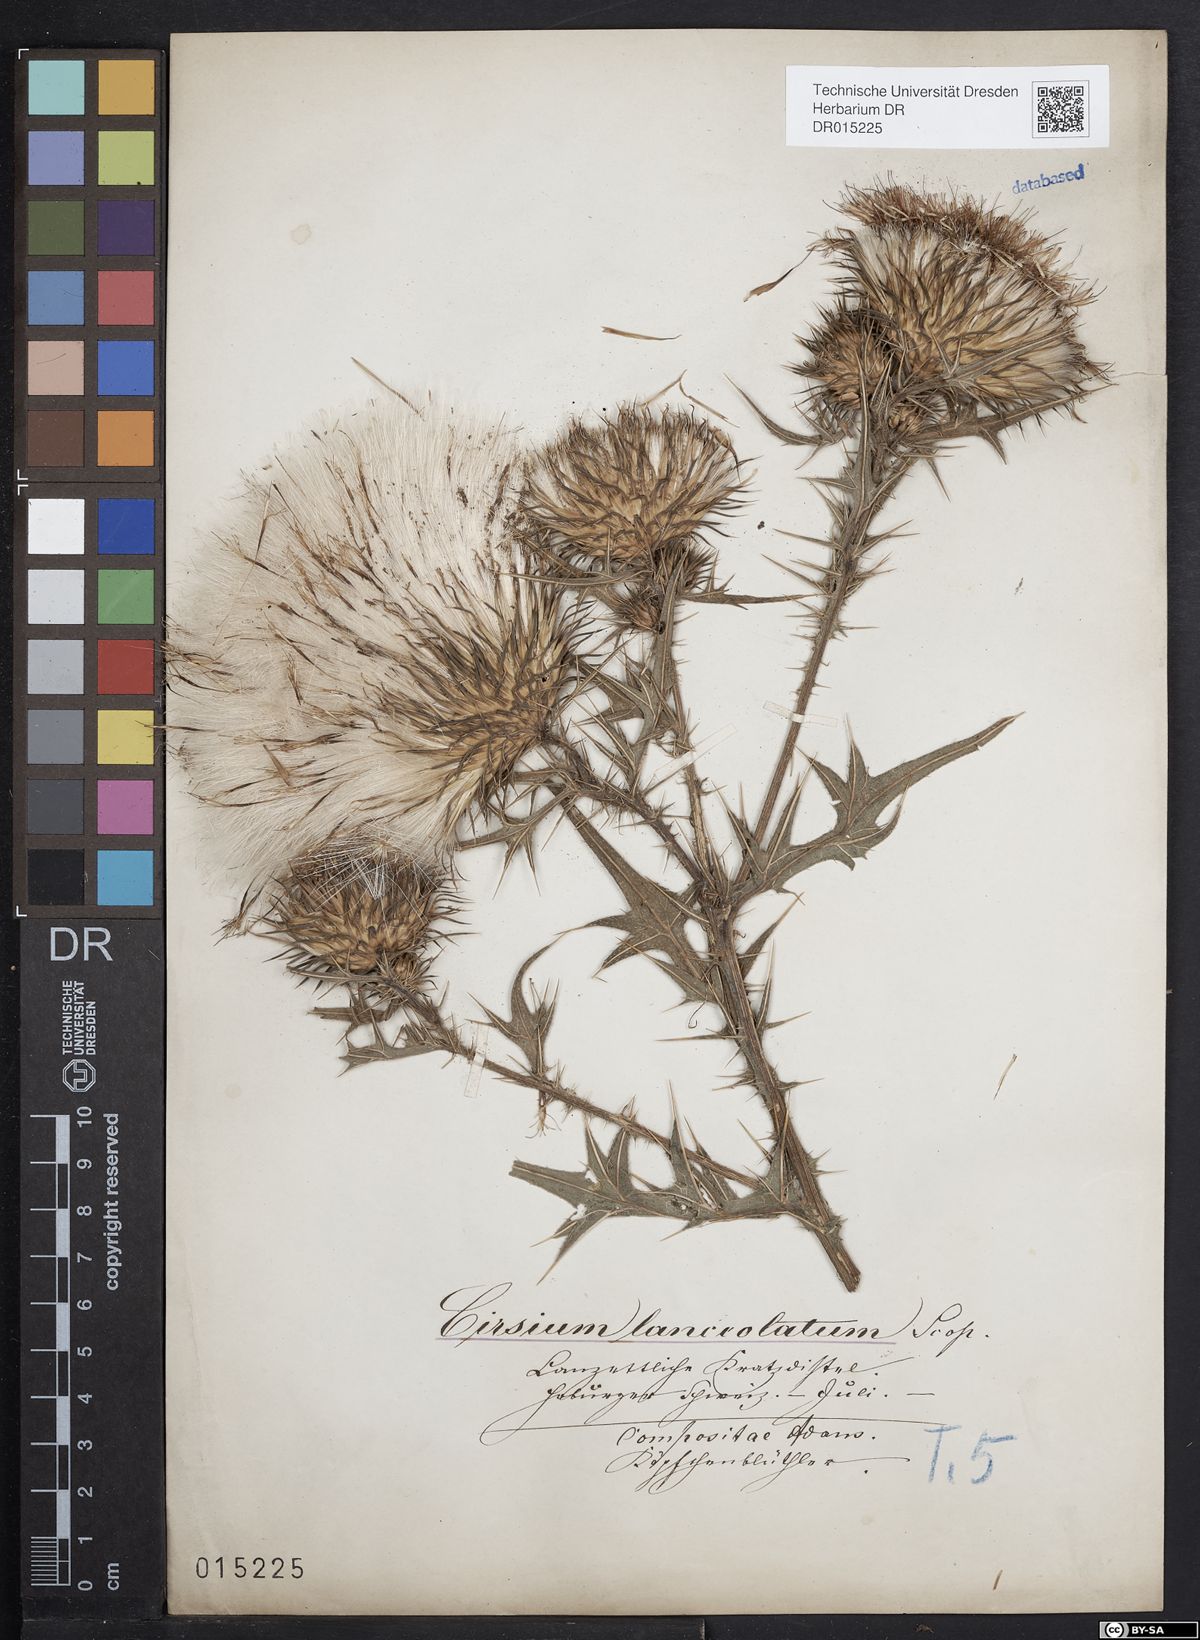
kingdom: Plantae
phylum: Tracheophyta
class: Magnoliopsida
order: Asterales
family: Asteraceae
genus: Cirsium
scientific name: Cirsium vulgare
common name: Bull thistle
